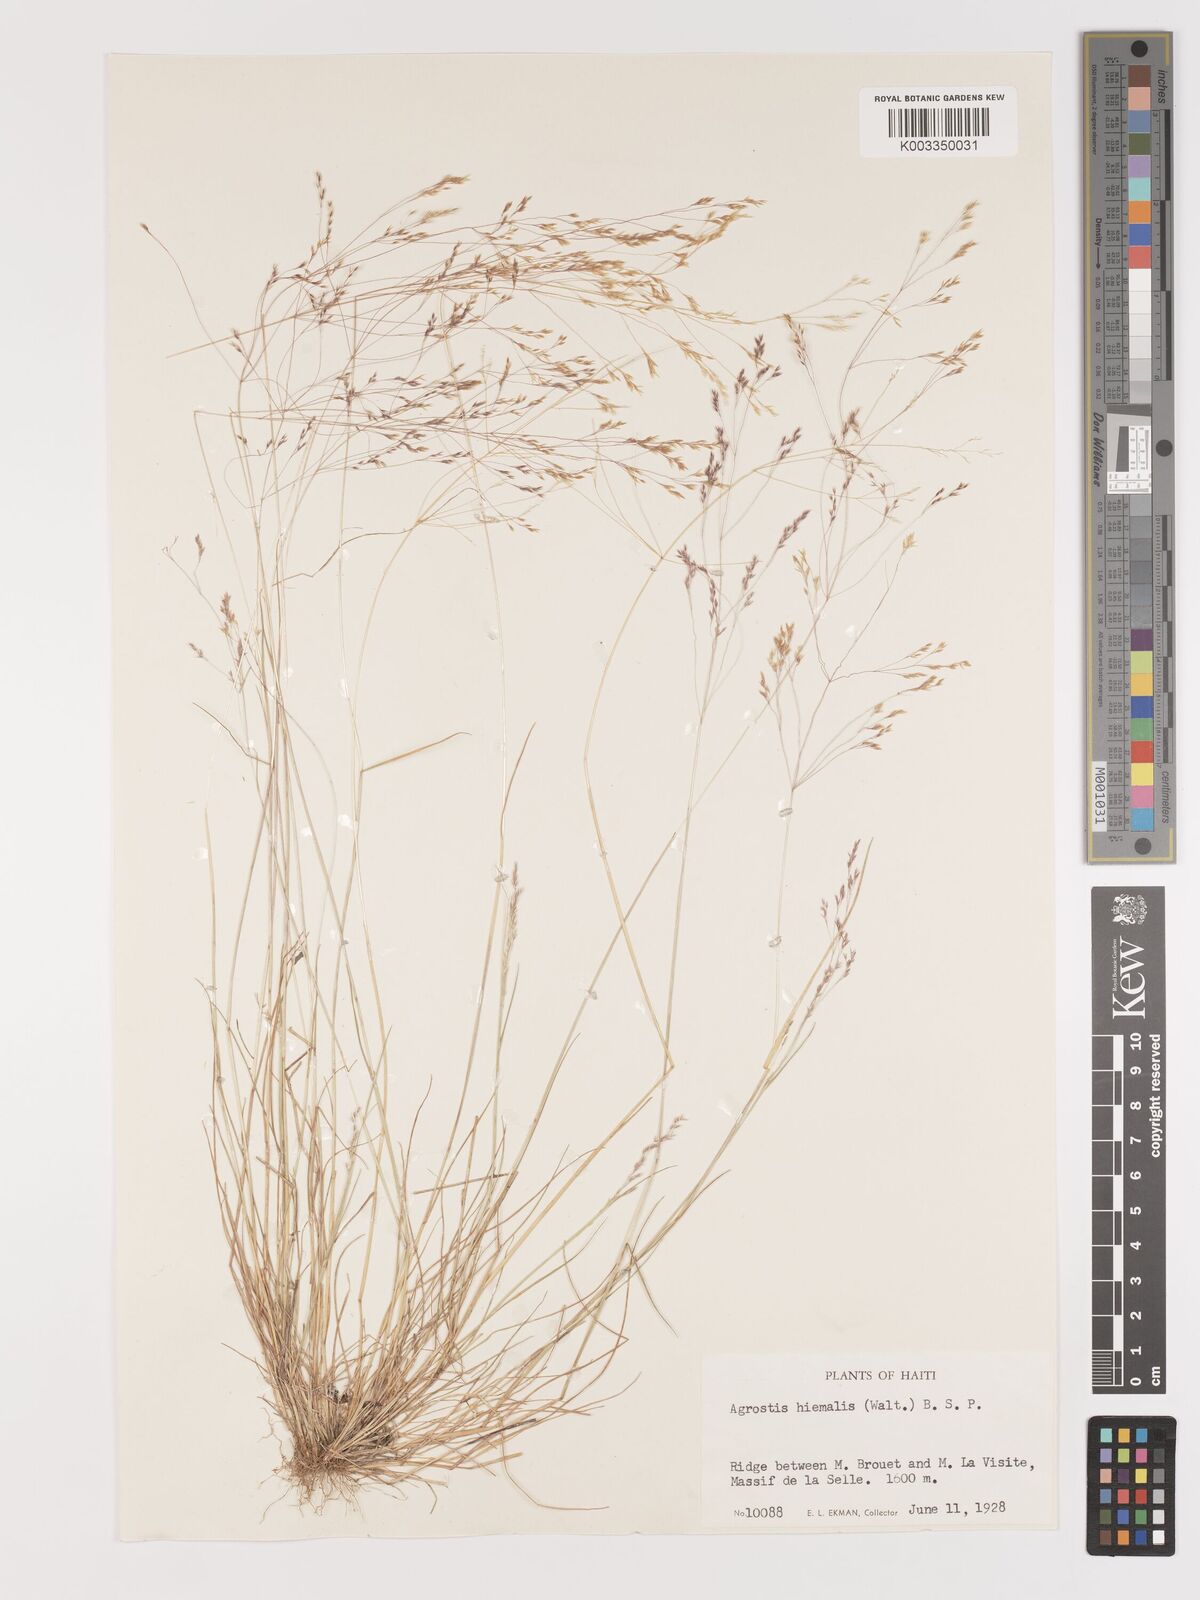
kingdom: Plantae
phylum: Tracheophyta
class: Liliopsida
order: Poales
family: Poaceae
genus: Agrostis
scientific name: Agrostis hyemalis
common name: Small bent
